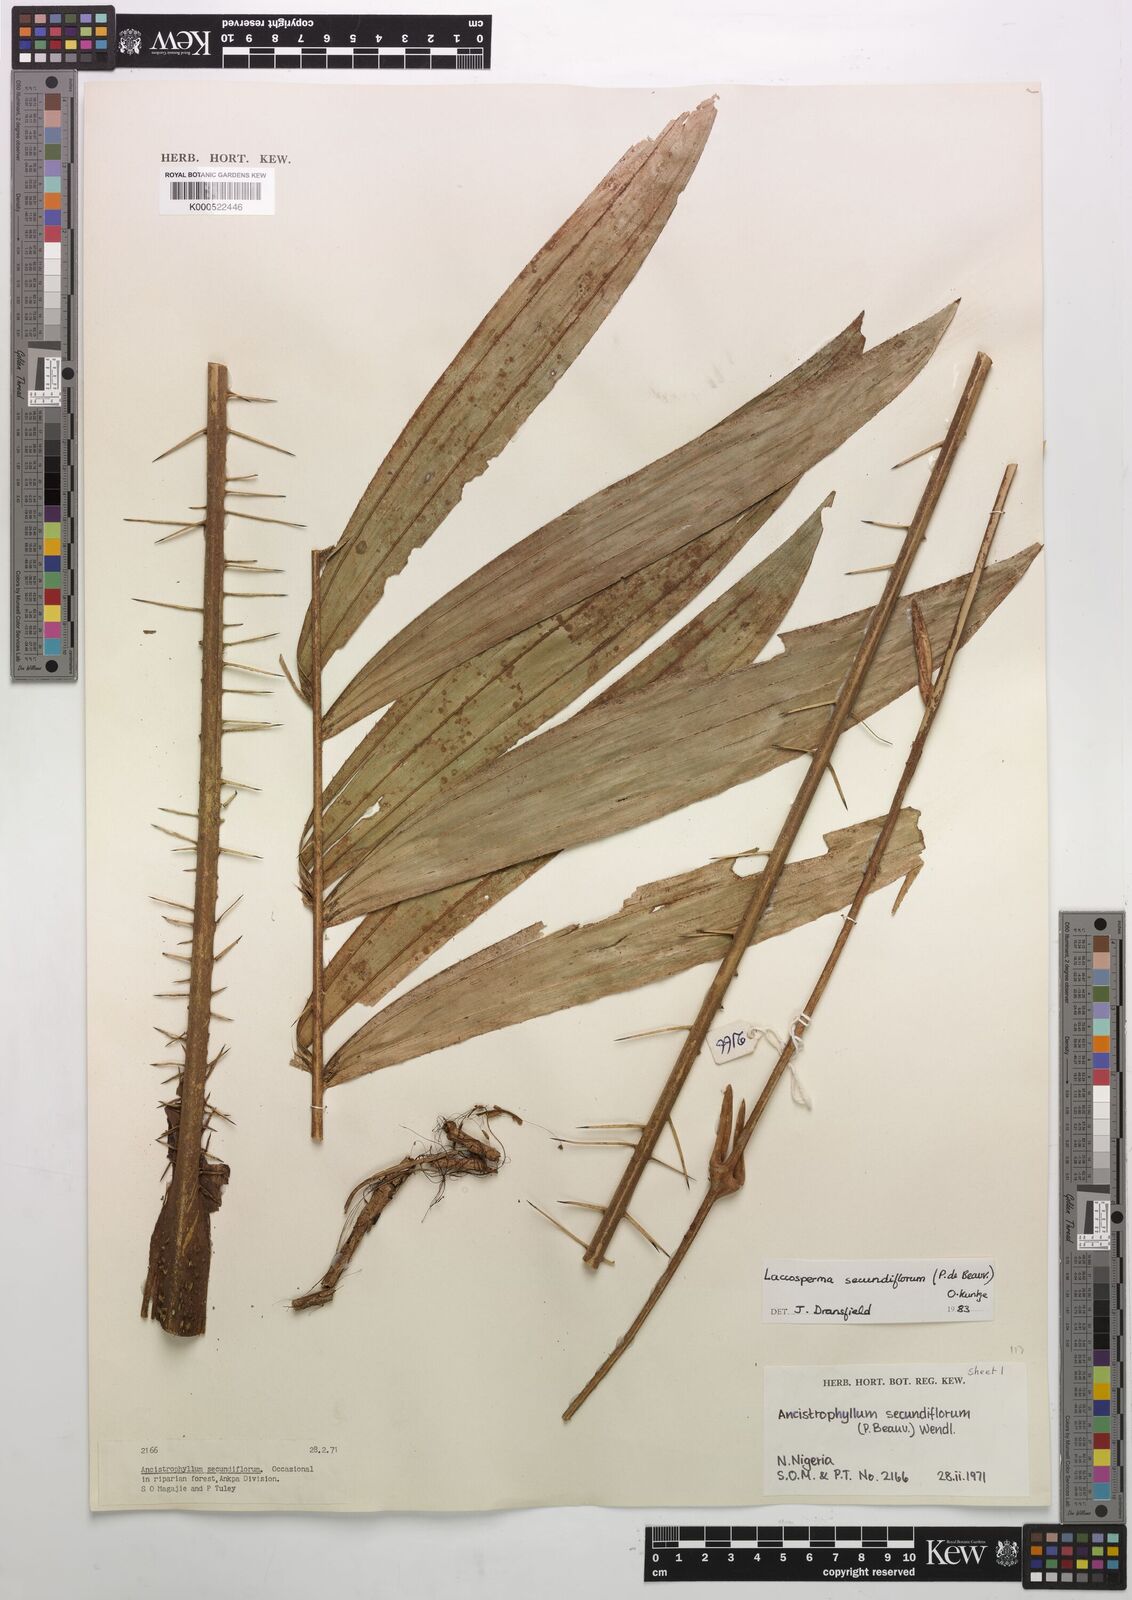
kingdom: Plantae
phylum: Tracheophyta
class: Liliopsida
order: Arecales
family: Arecaceae
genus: Laccosperma
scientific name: Laccosperma secundiflorum
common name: Rattan
